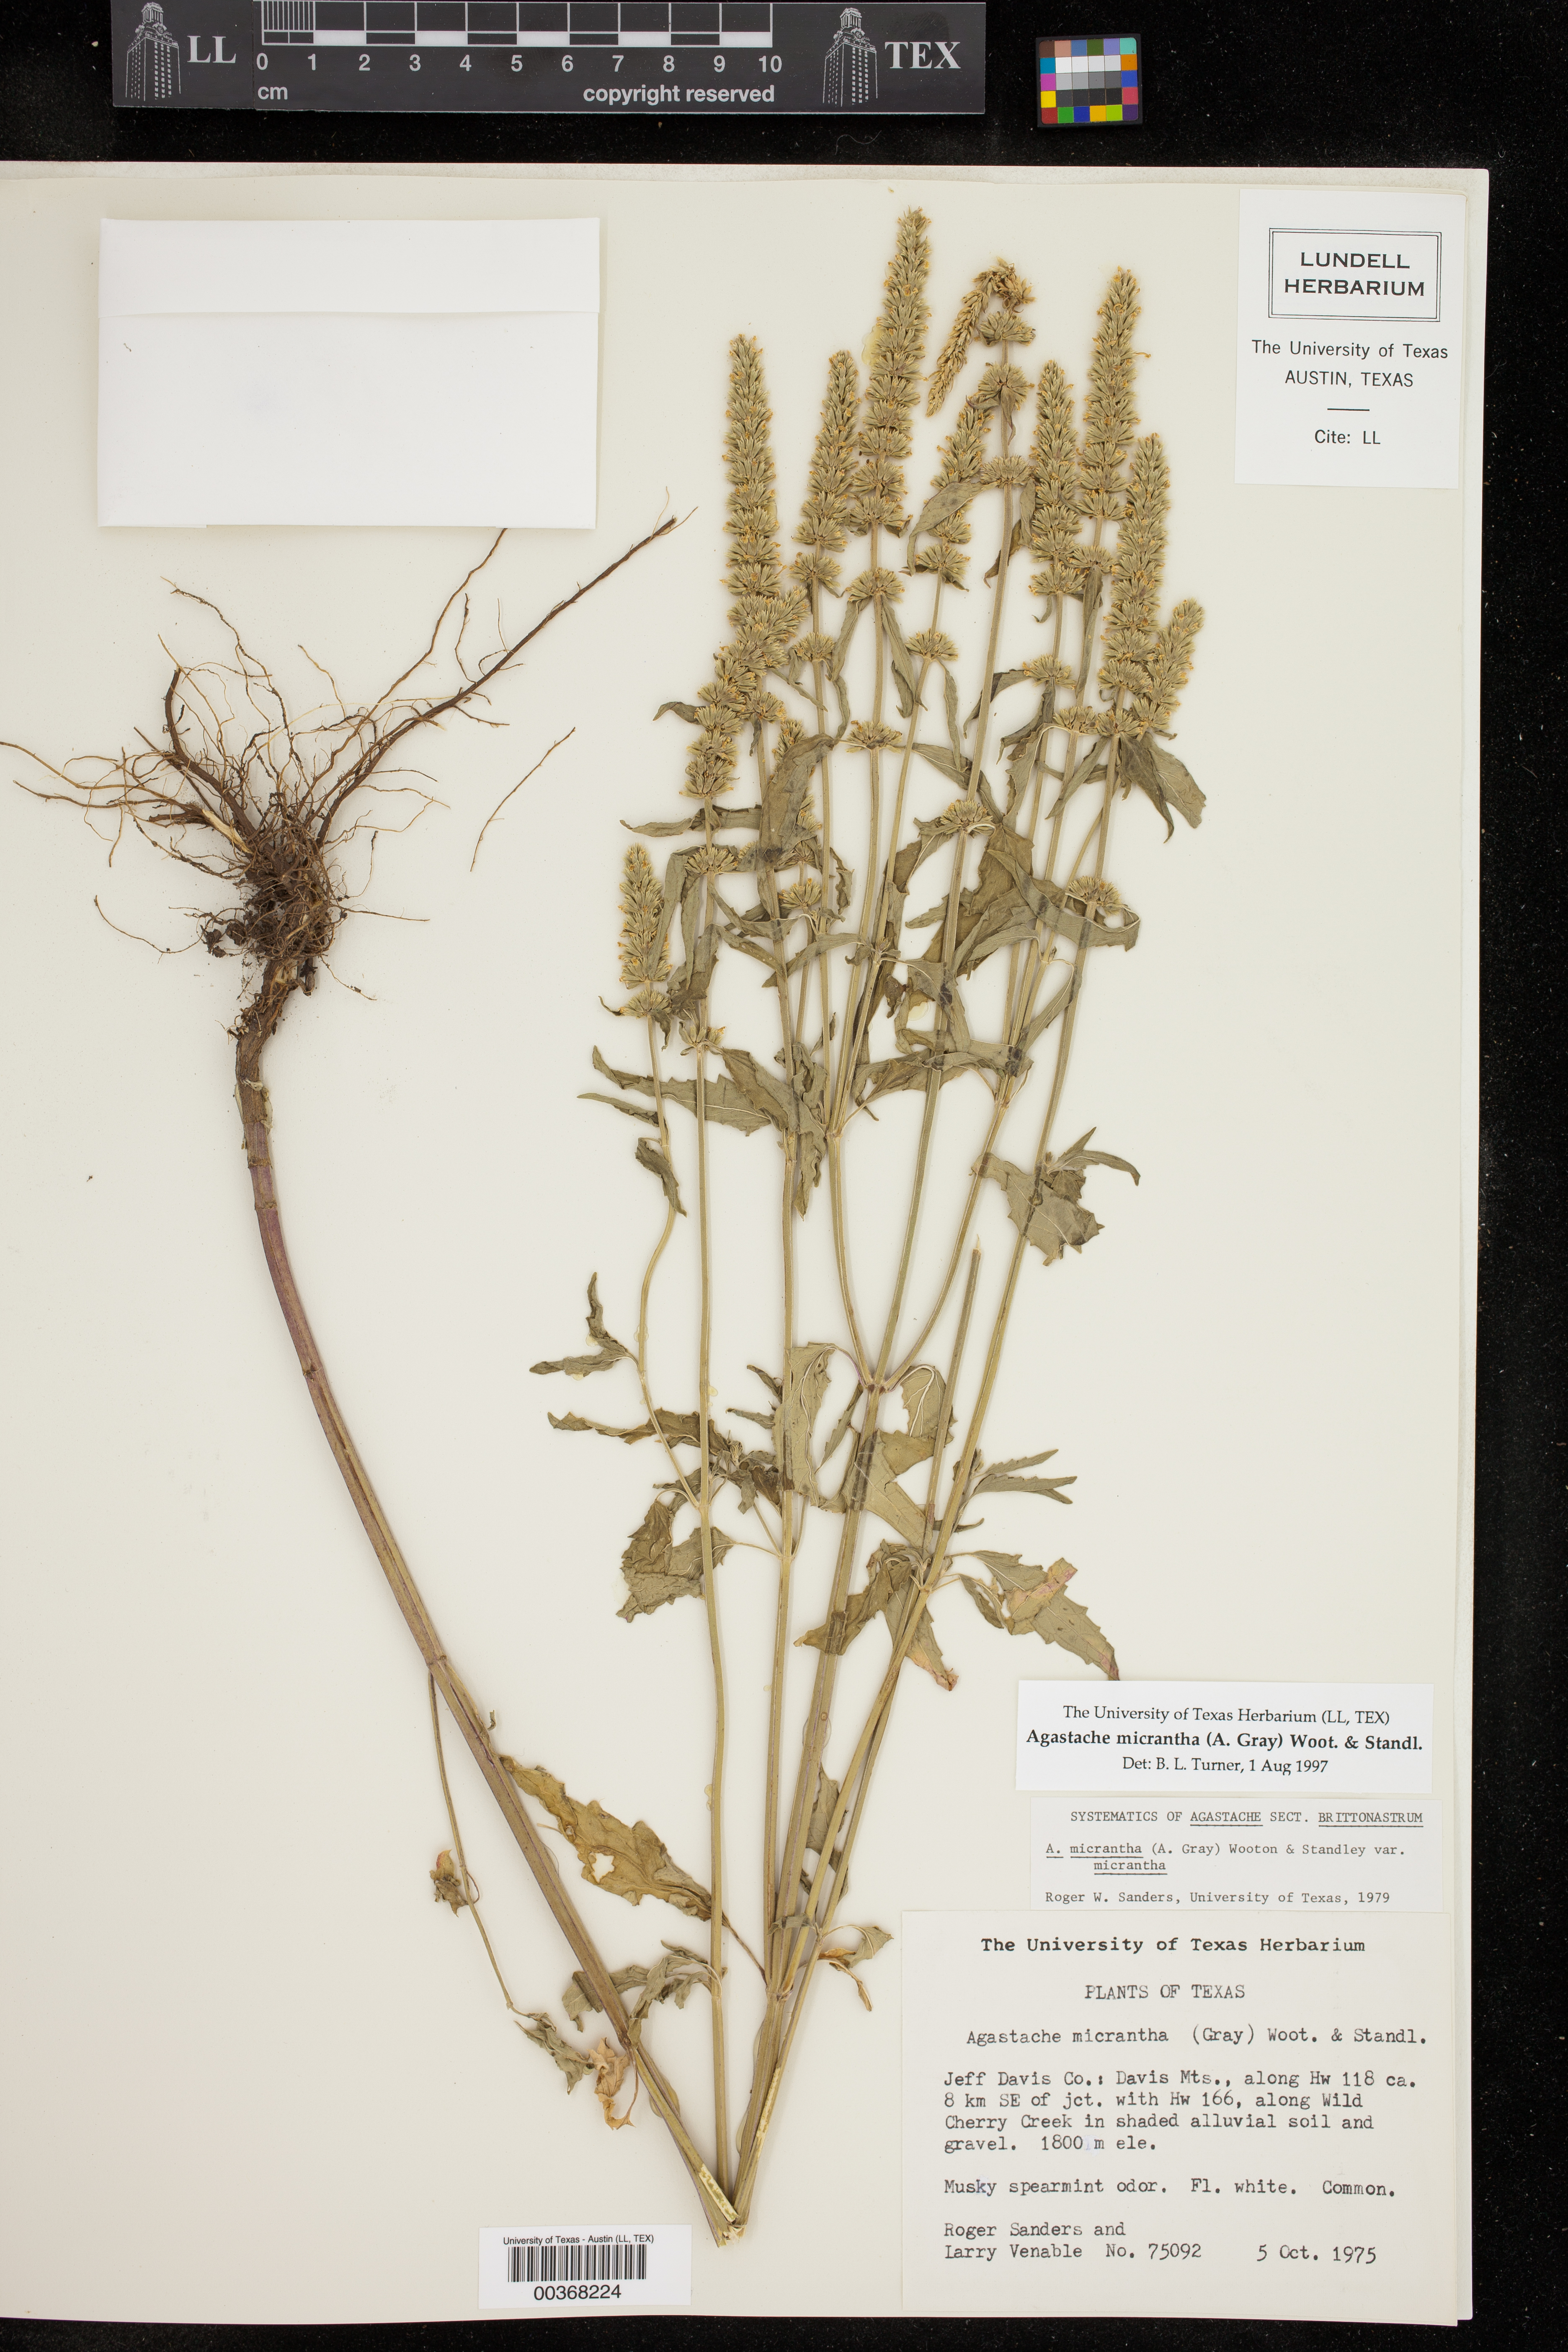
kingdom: Plantae
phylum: Tracheophyta
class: Magnoliopsida
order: Lamiales
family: Lamiaceae
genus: Agastache
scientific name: Agastache micrantha
